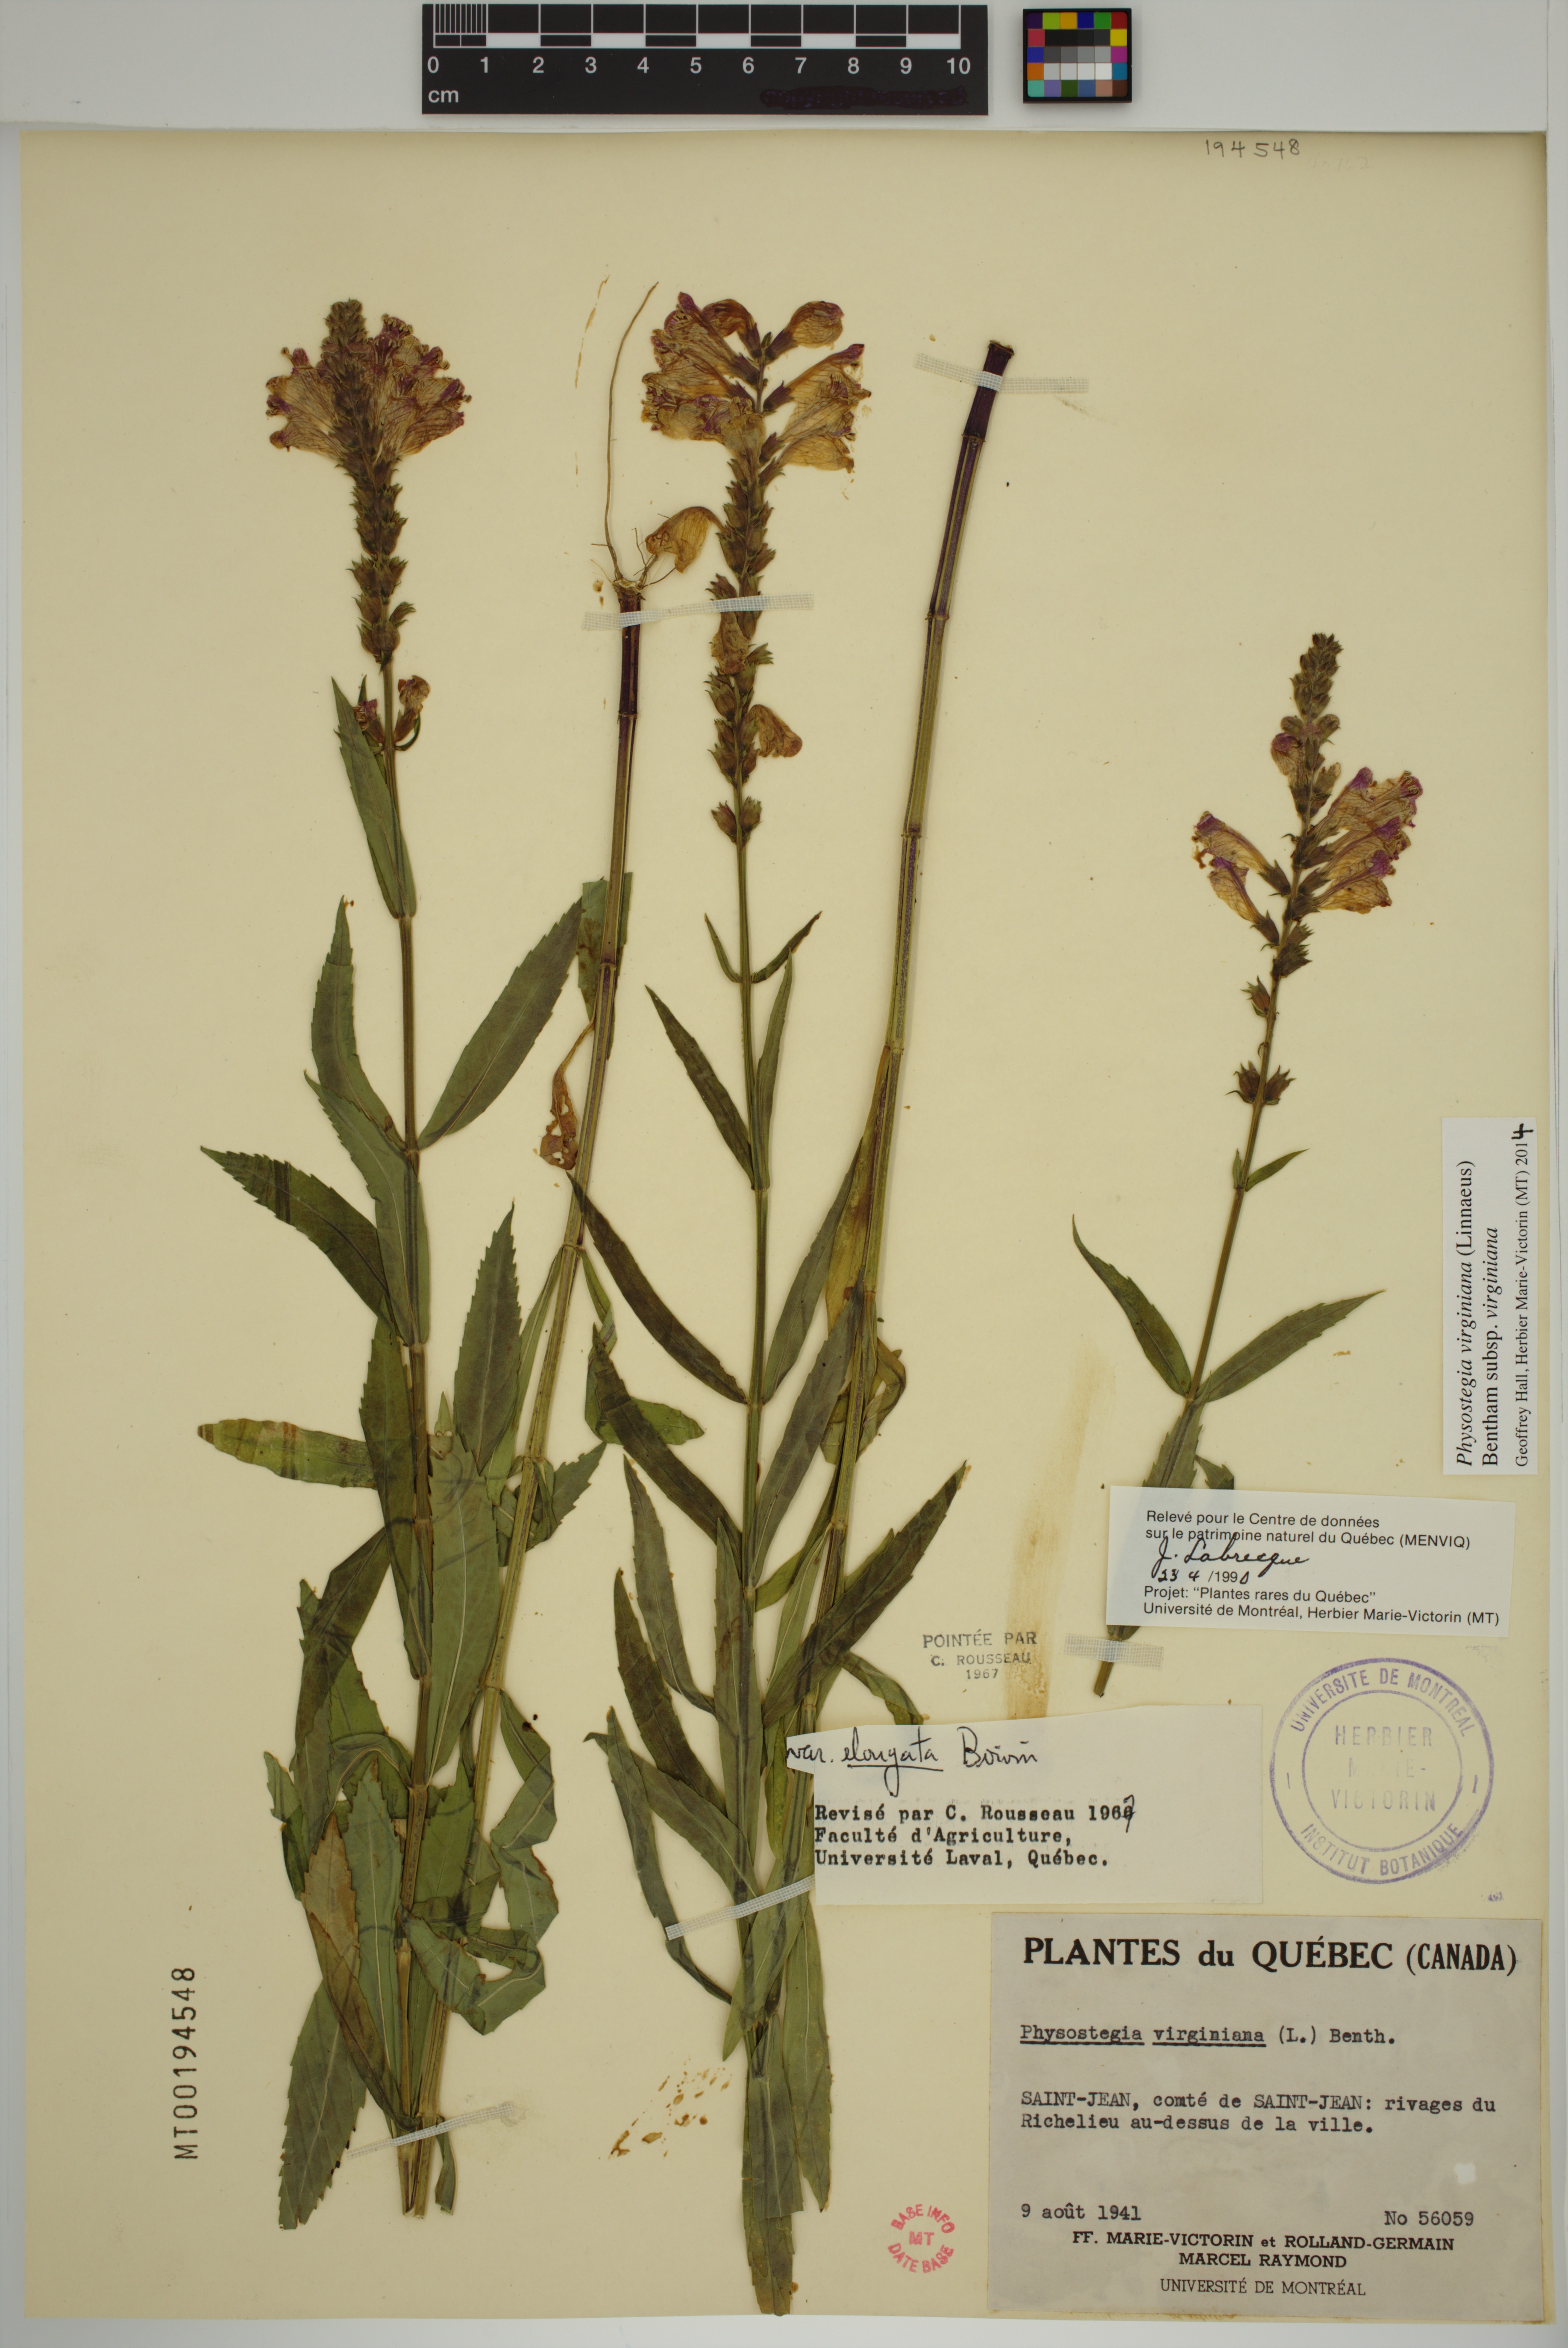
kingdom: Plantae
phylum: Tracheophyta
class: Magnoliopsida
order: Lamiales
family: Lamiaceae
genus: Physostegia
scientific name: Physostegia virginiana
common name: Obedient-plant
